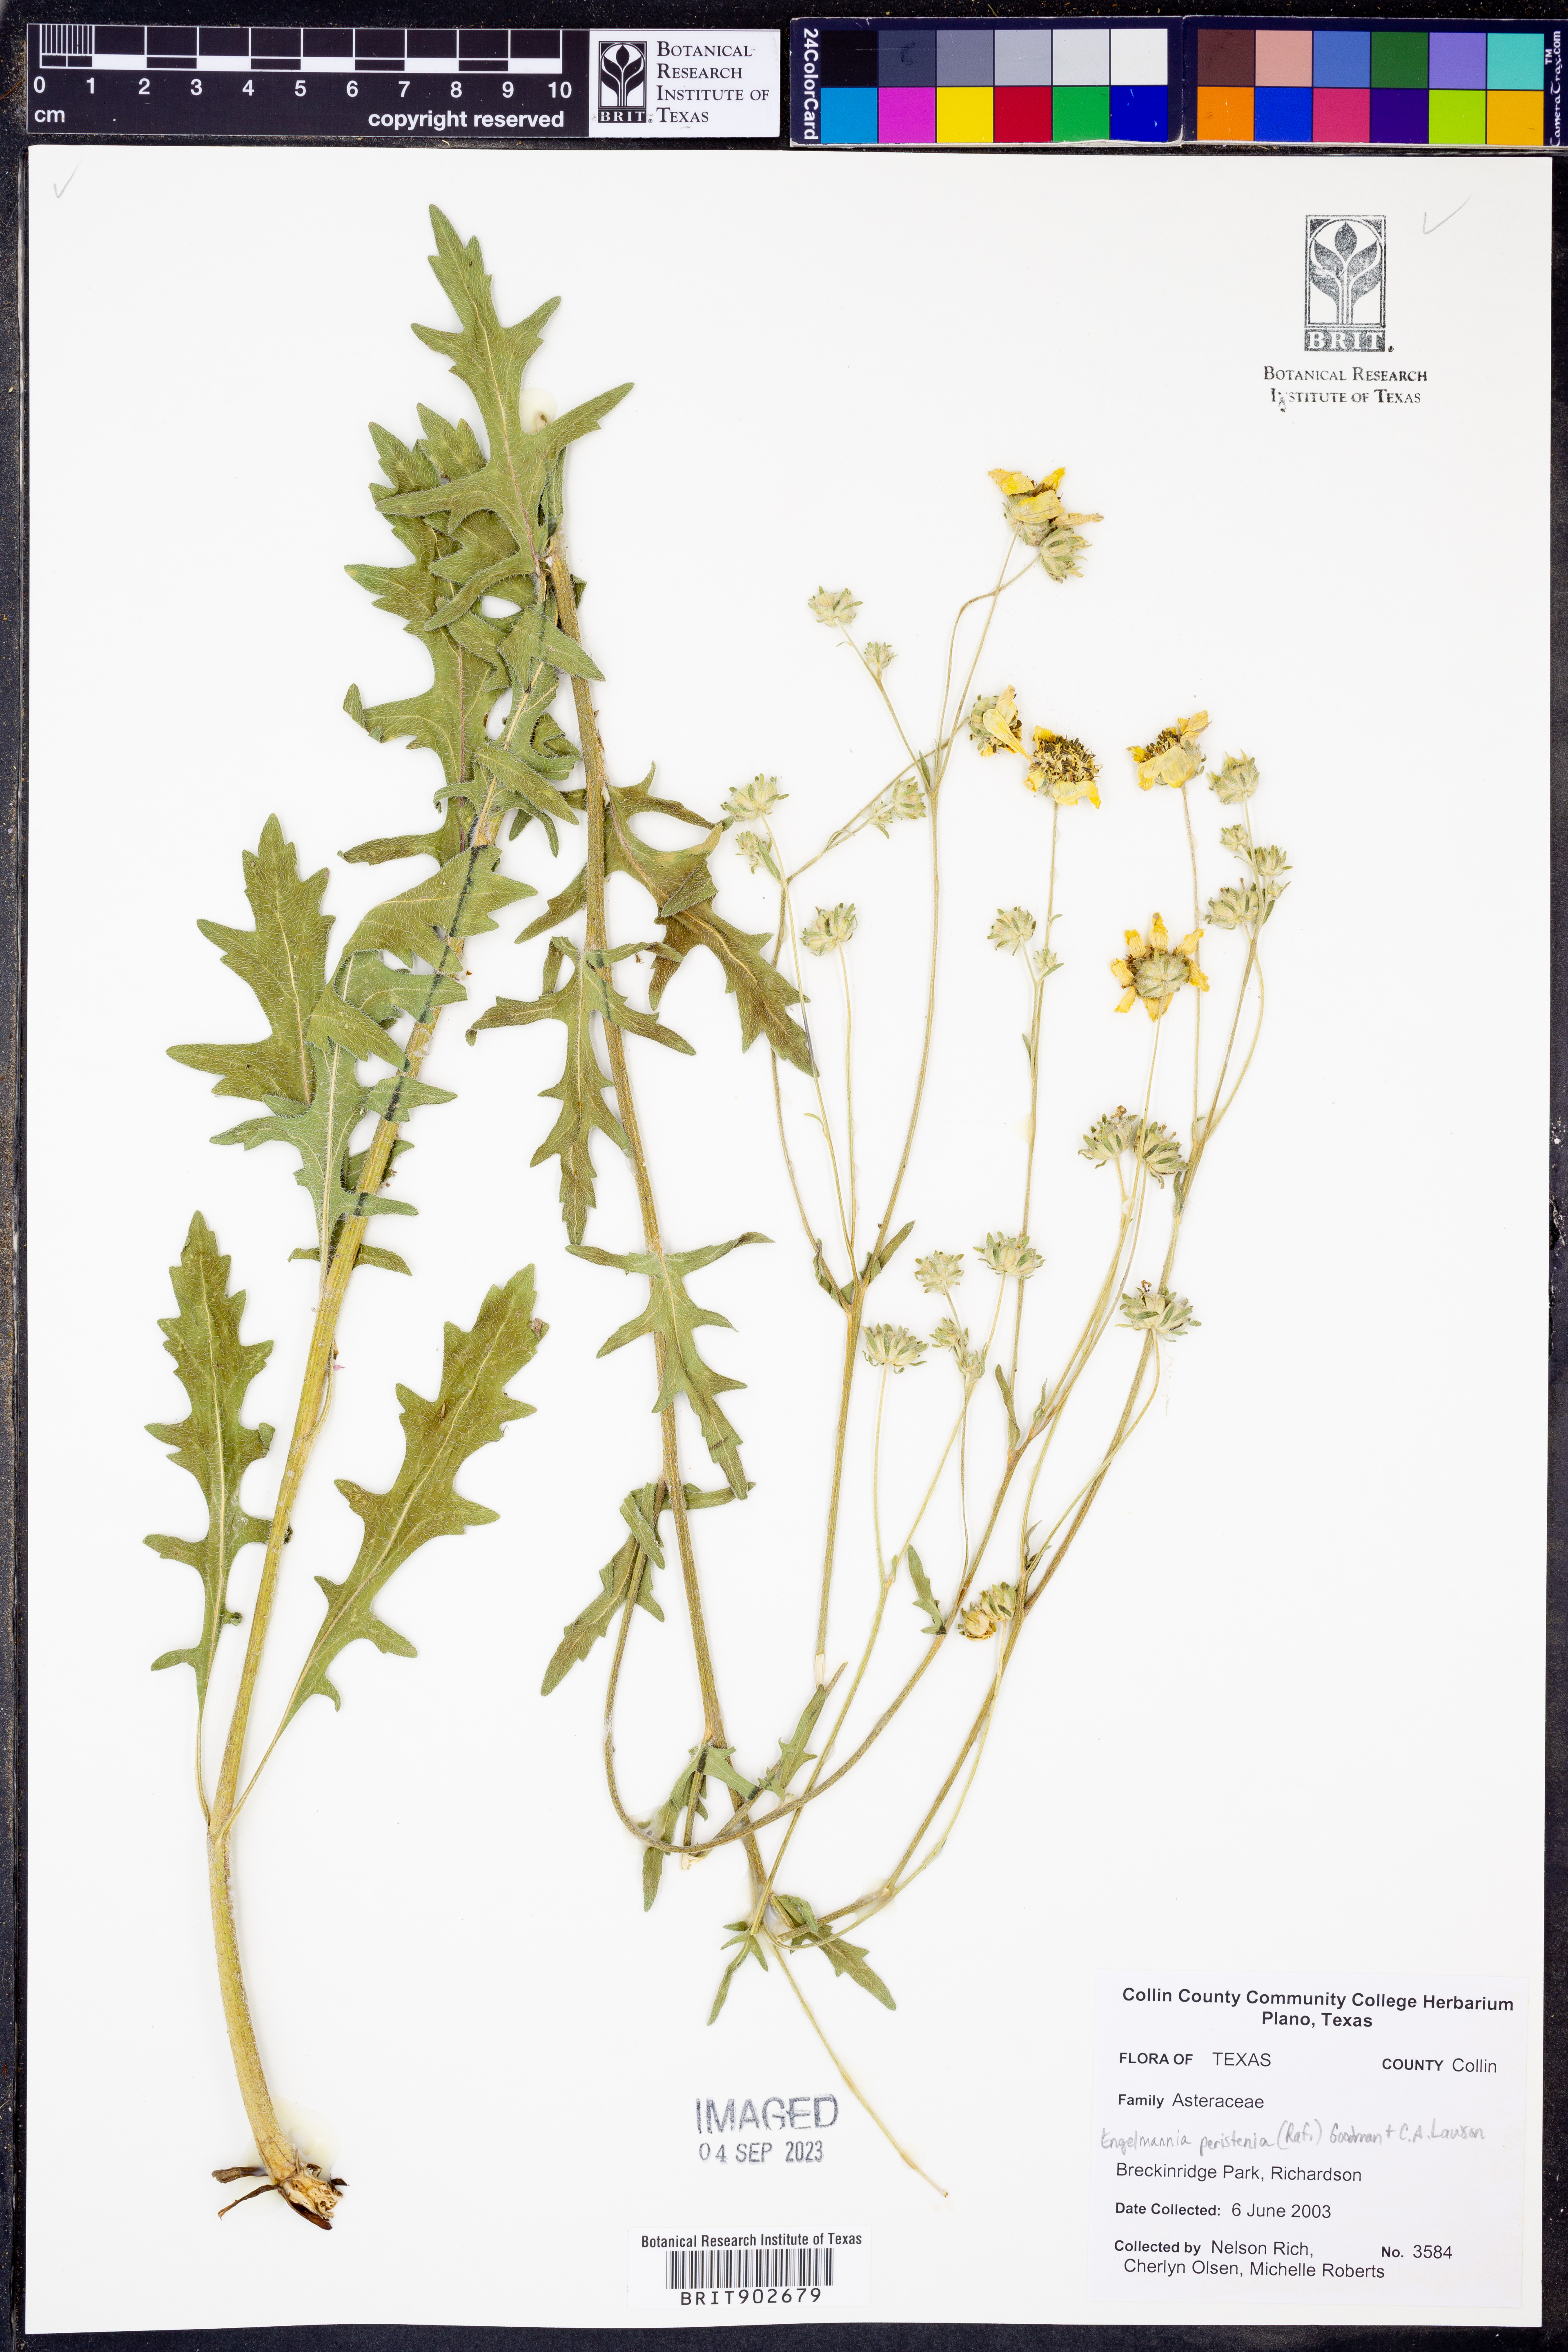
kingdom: Plantae
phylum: Tracheophyta
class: Magnoliopsida
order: Asterales
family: Asteraceae
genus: Engelmannia
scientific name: Engelmannia peristenia
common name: Engelmann's daisy
